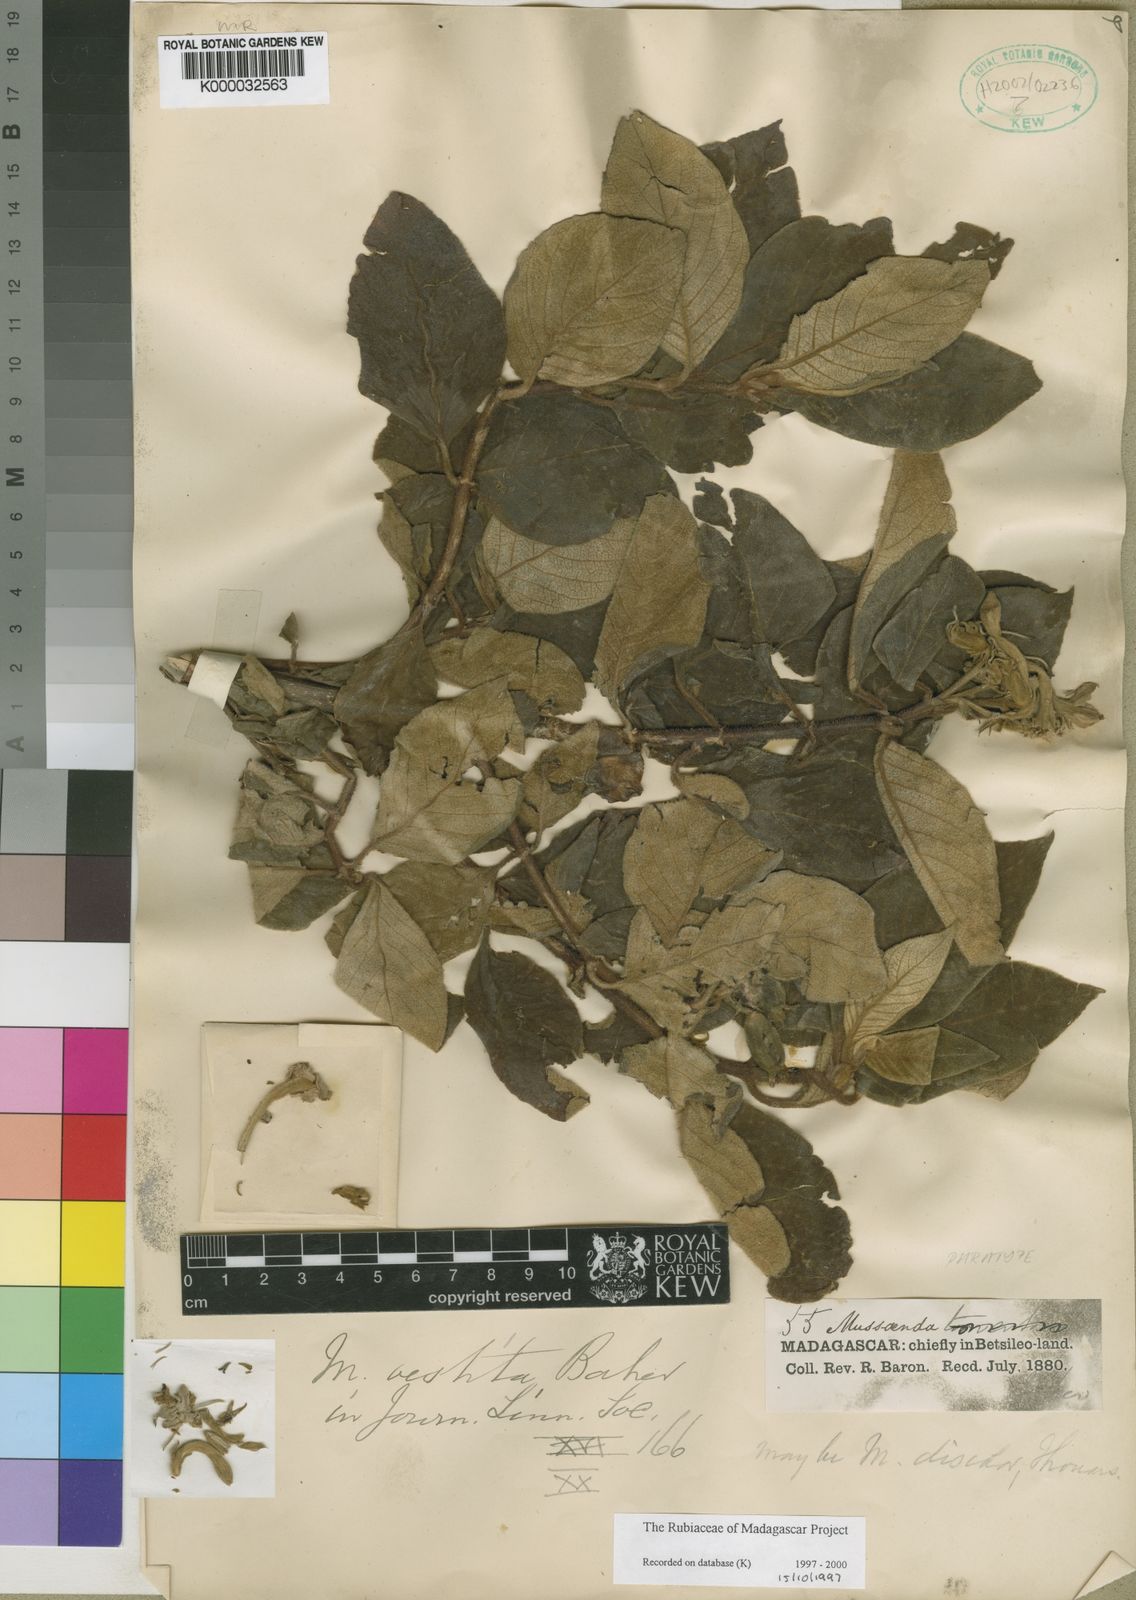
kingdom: Plantae
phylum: Tracheophyta
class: Magnoliopsida
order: Gentianales
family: Rubiaceae
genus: Bremeria
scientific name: Bremeria vestita
